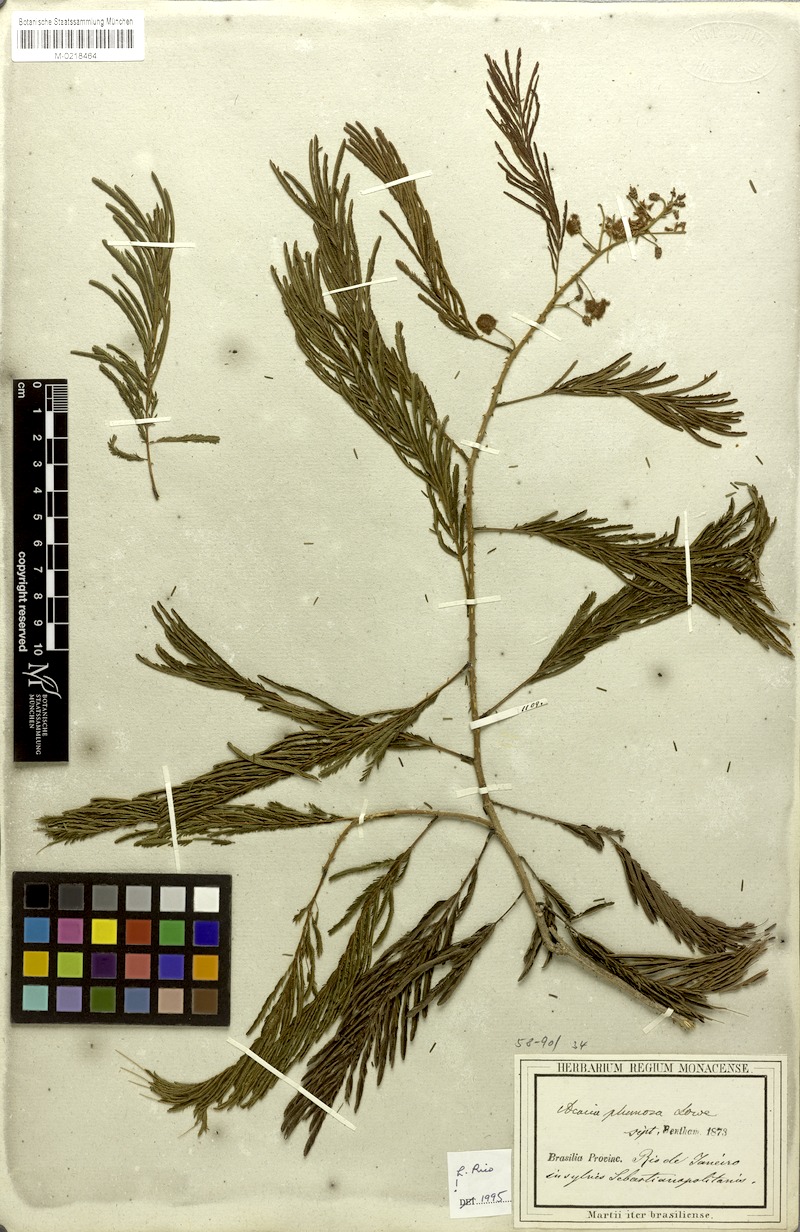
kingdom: Plantae
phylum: Tracheophyta
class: Magnoliopsida
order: Fabales
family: Fabaceae
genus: Senegalia
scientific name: Senegalia lowei
